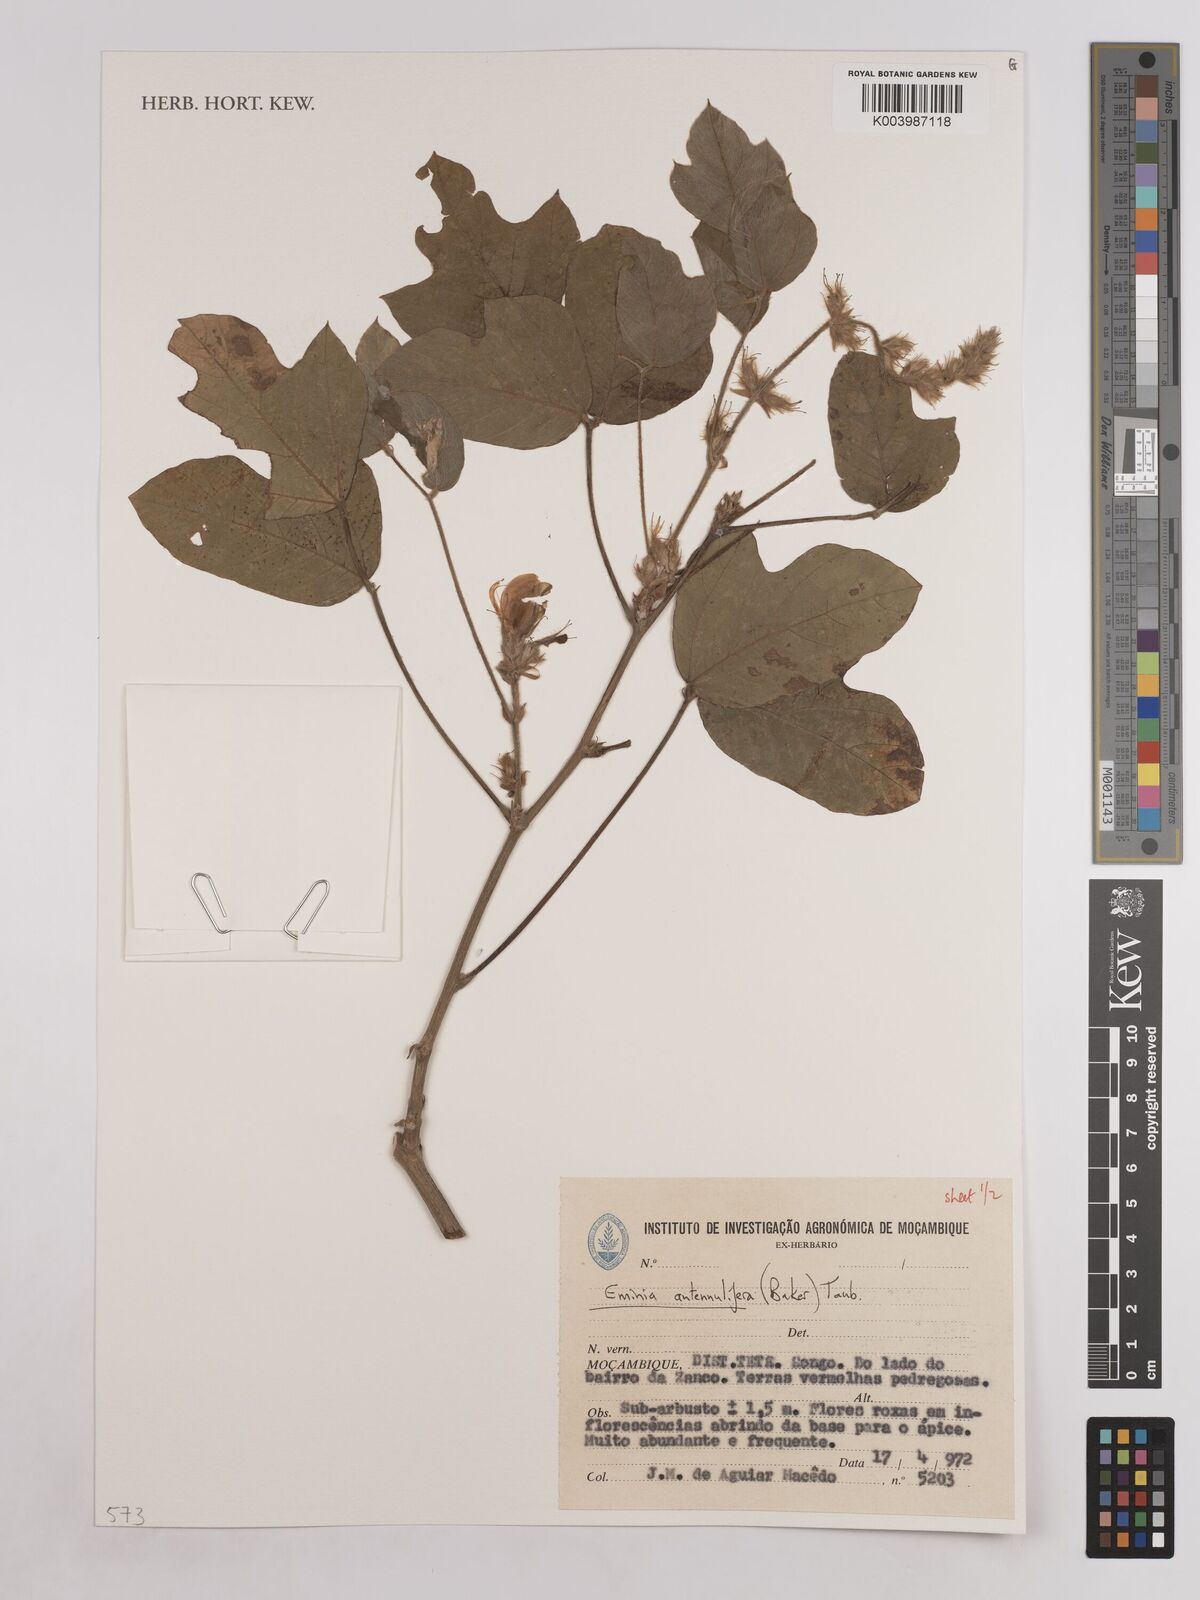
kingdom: Plantae
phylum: Tracheophyta
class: Magnoliopsida
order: Fabales
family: Fabaceae
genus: Eminia
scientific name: Eminia antennulifera
